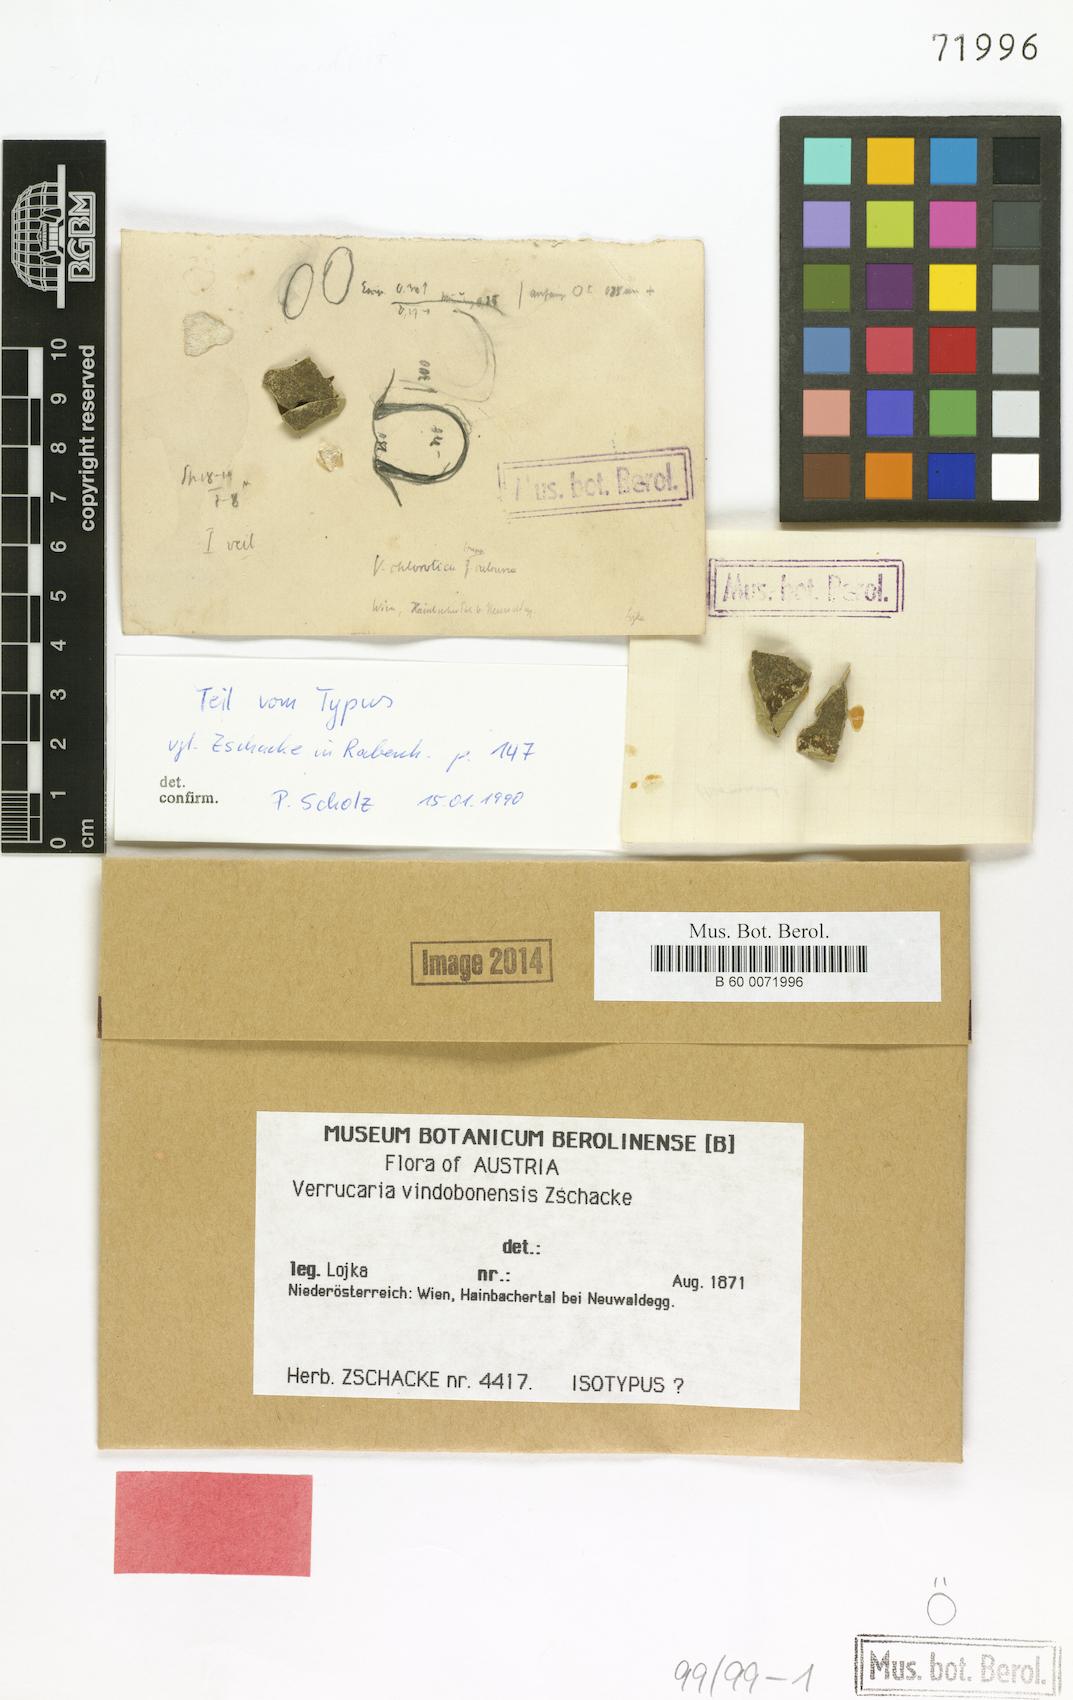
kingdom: Fungi
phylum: Ascomycota
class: Eurotiomycetes
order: Verrucariales
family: Verrucariaceae
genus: Verrucaria
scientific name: Verrucaria
